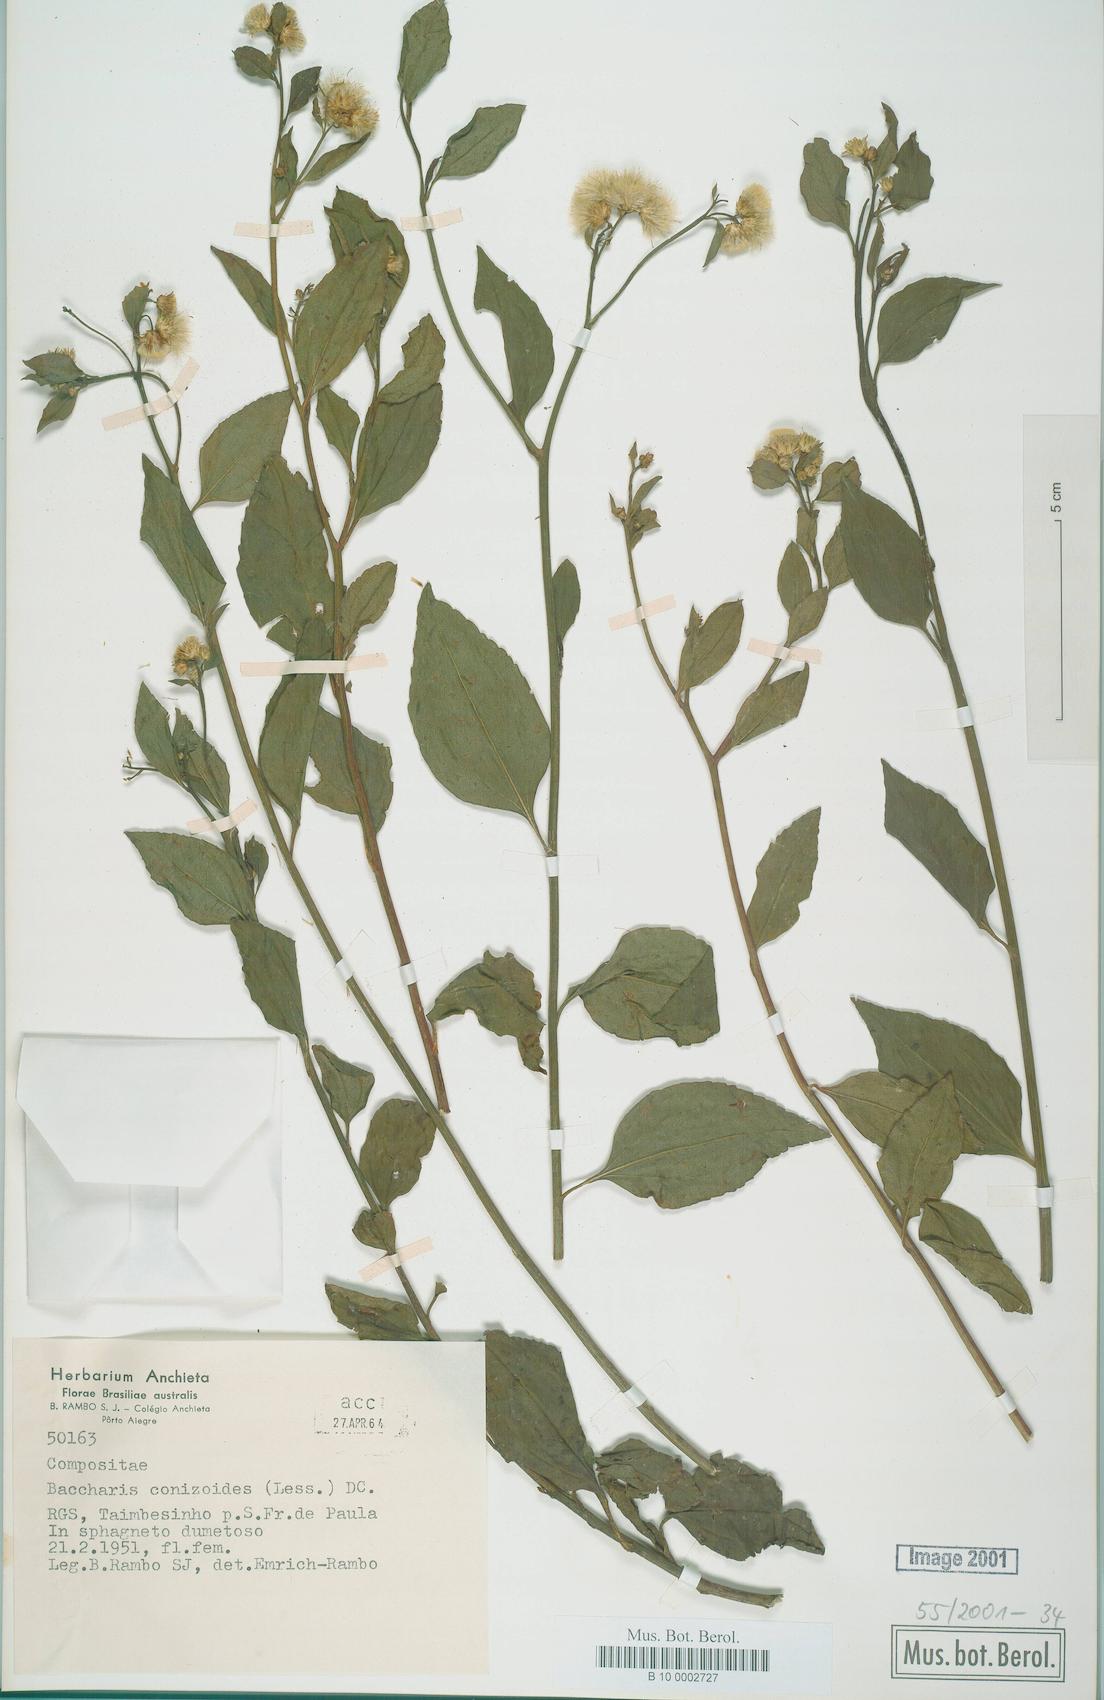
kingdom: Plantae
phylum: Tracheophyta
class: Magnoliopsida
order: Asterales
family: Asteraceae
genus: Baccharis
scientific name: Baccharis conyzoides
